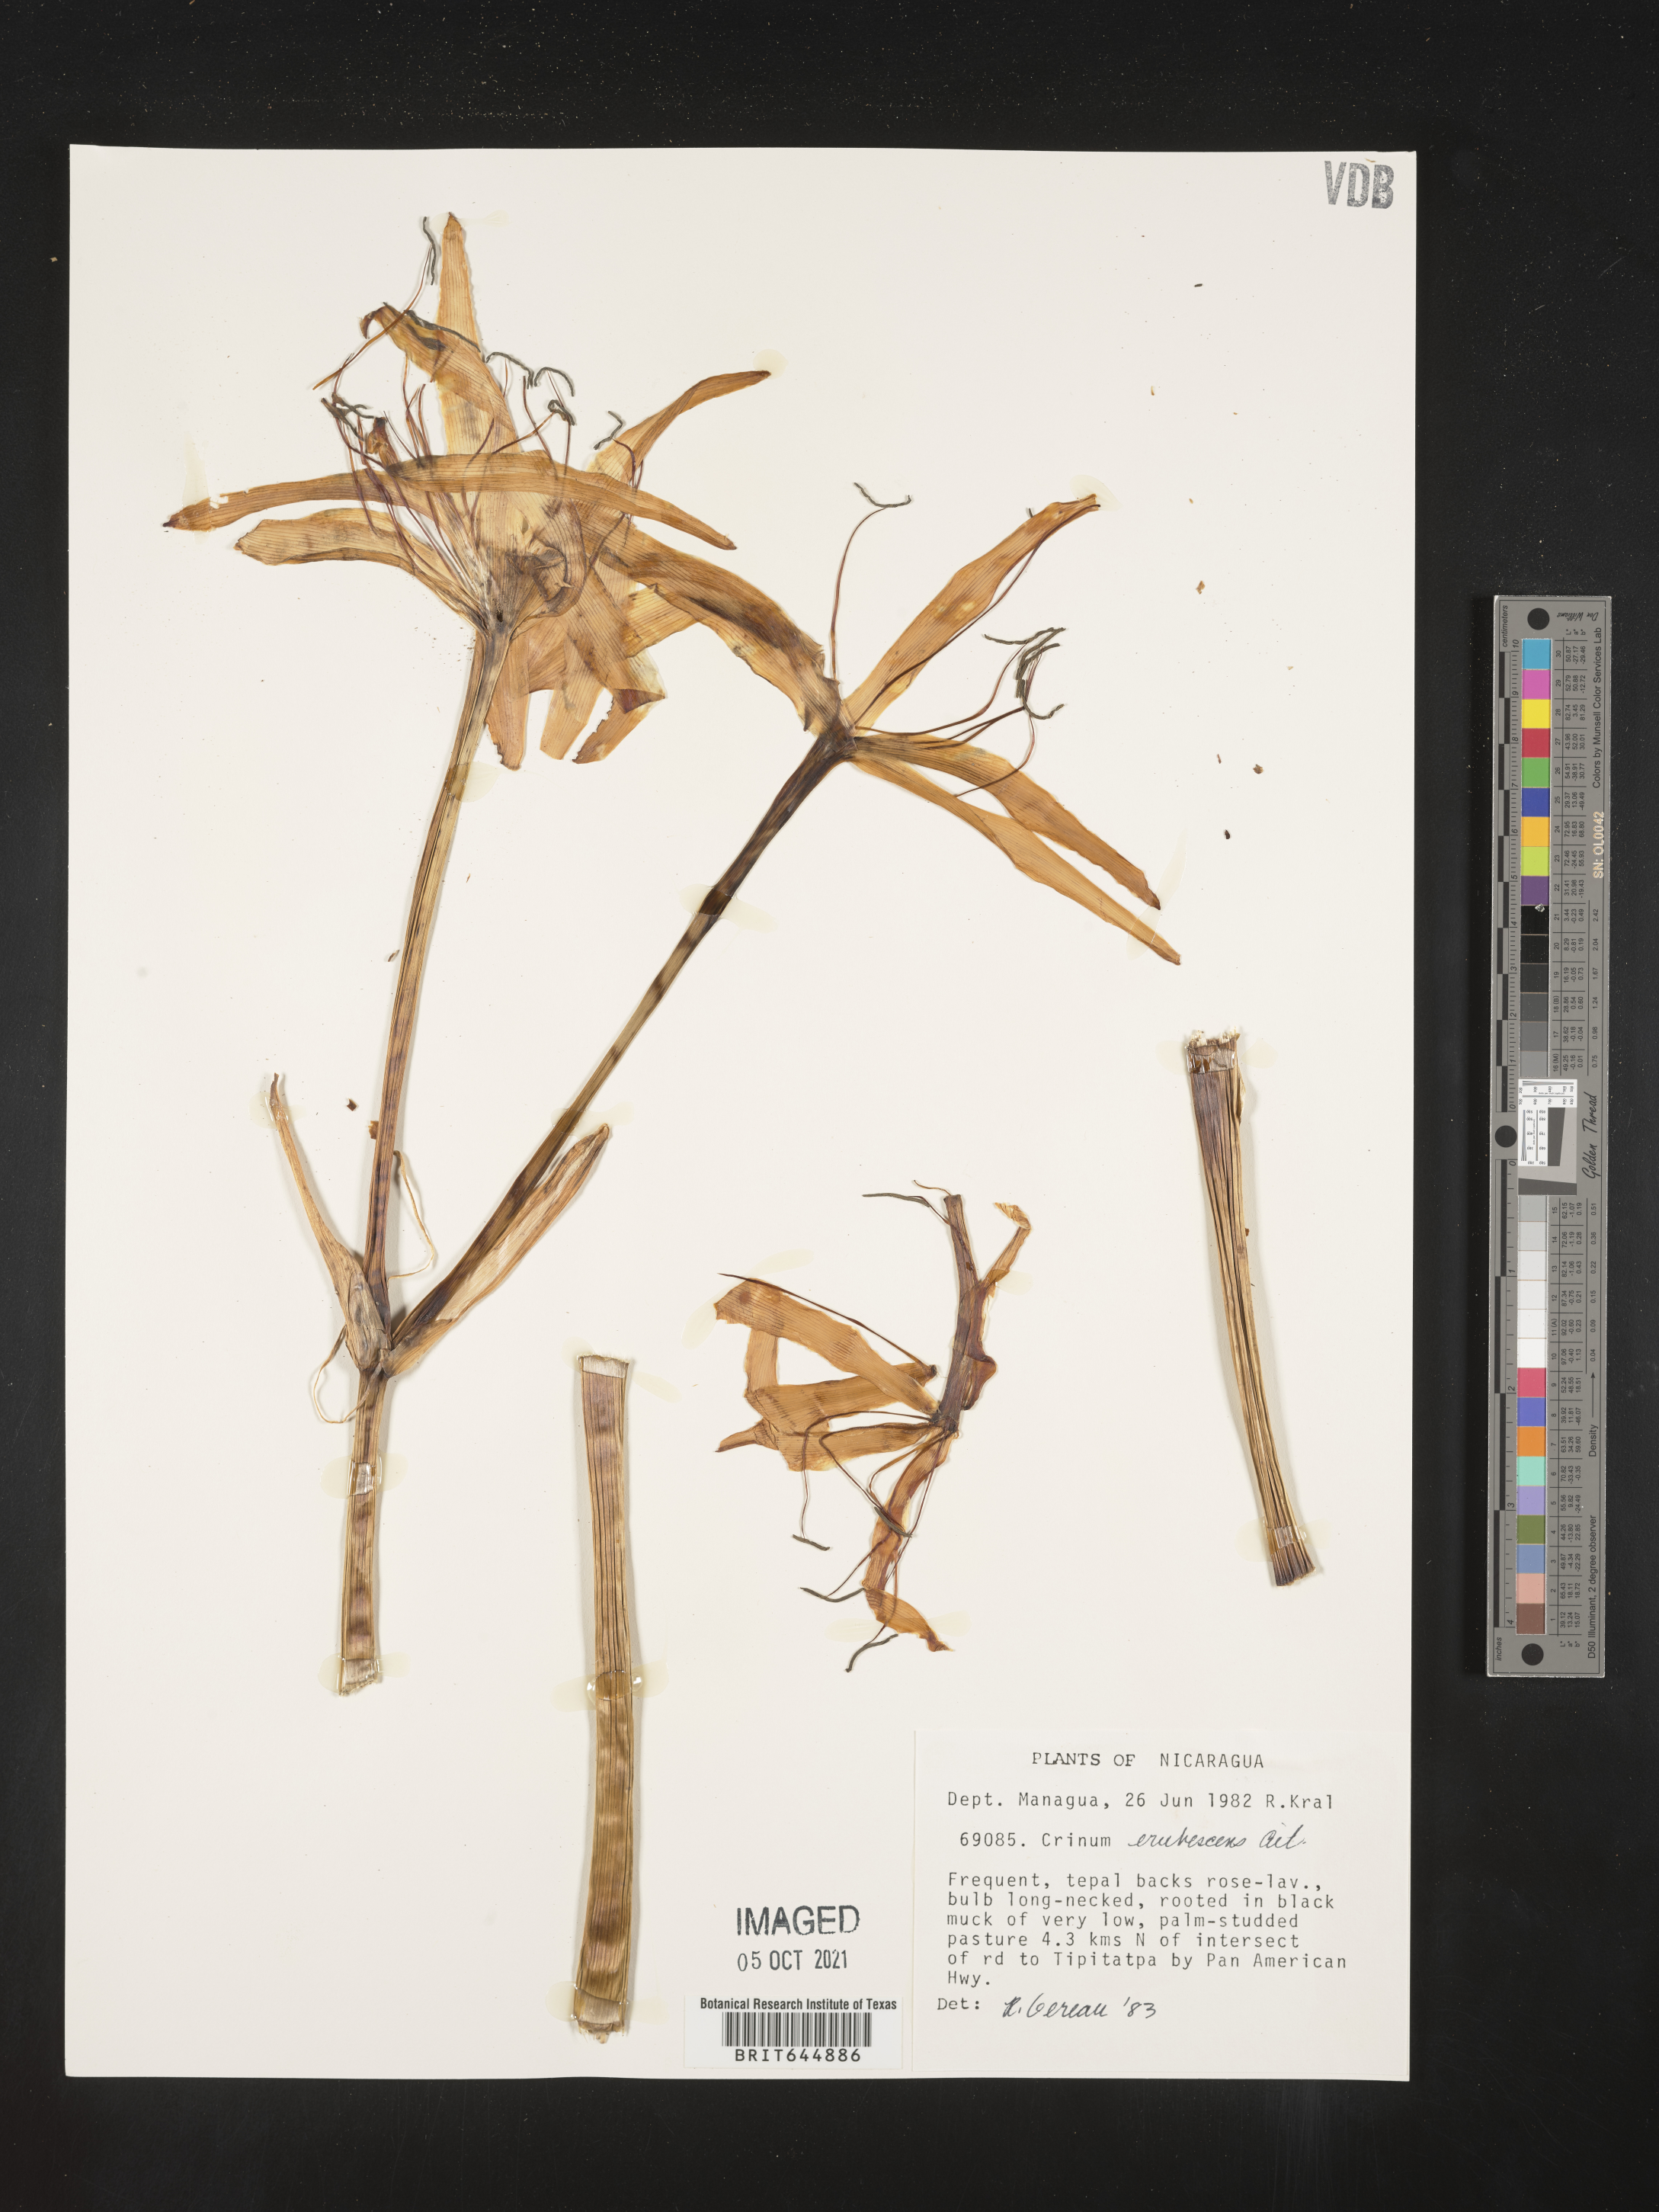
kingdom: Plantae
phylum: Tracheophyta
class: Liliopsida
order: Asparagales
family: Amaryllidaceae
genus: Crinum
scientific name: Crinum kunthianum
